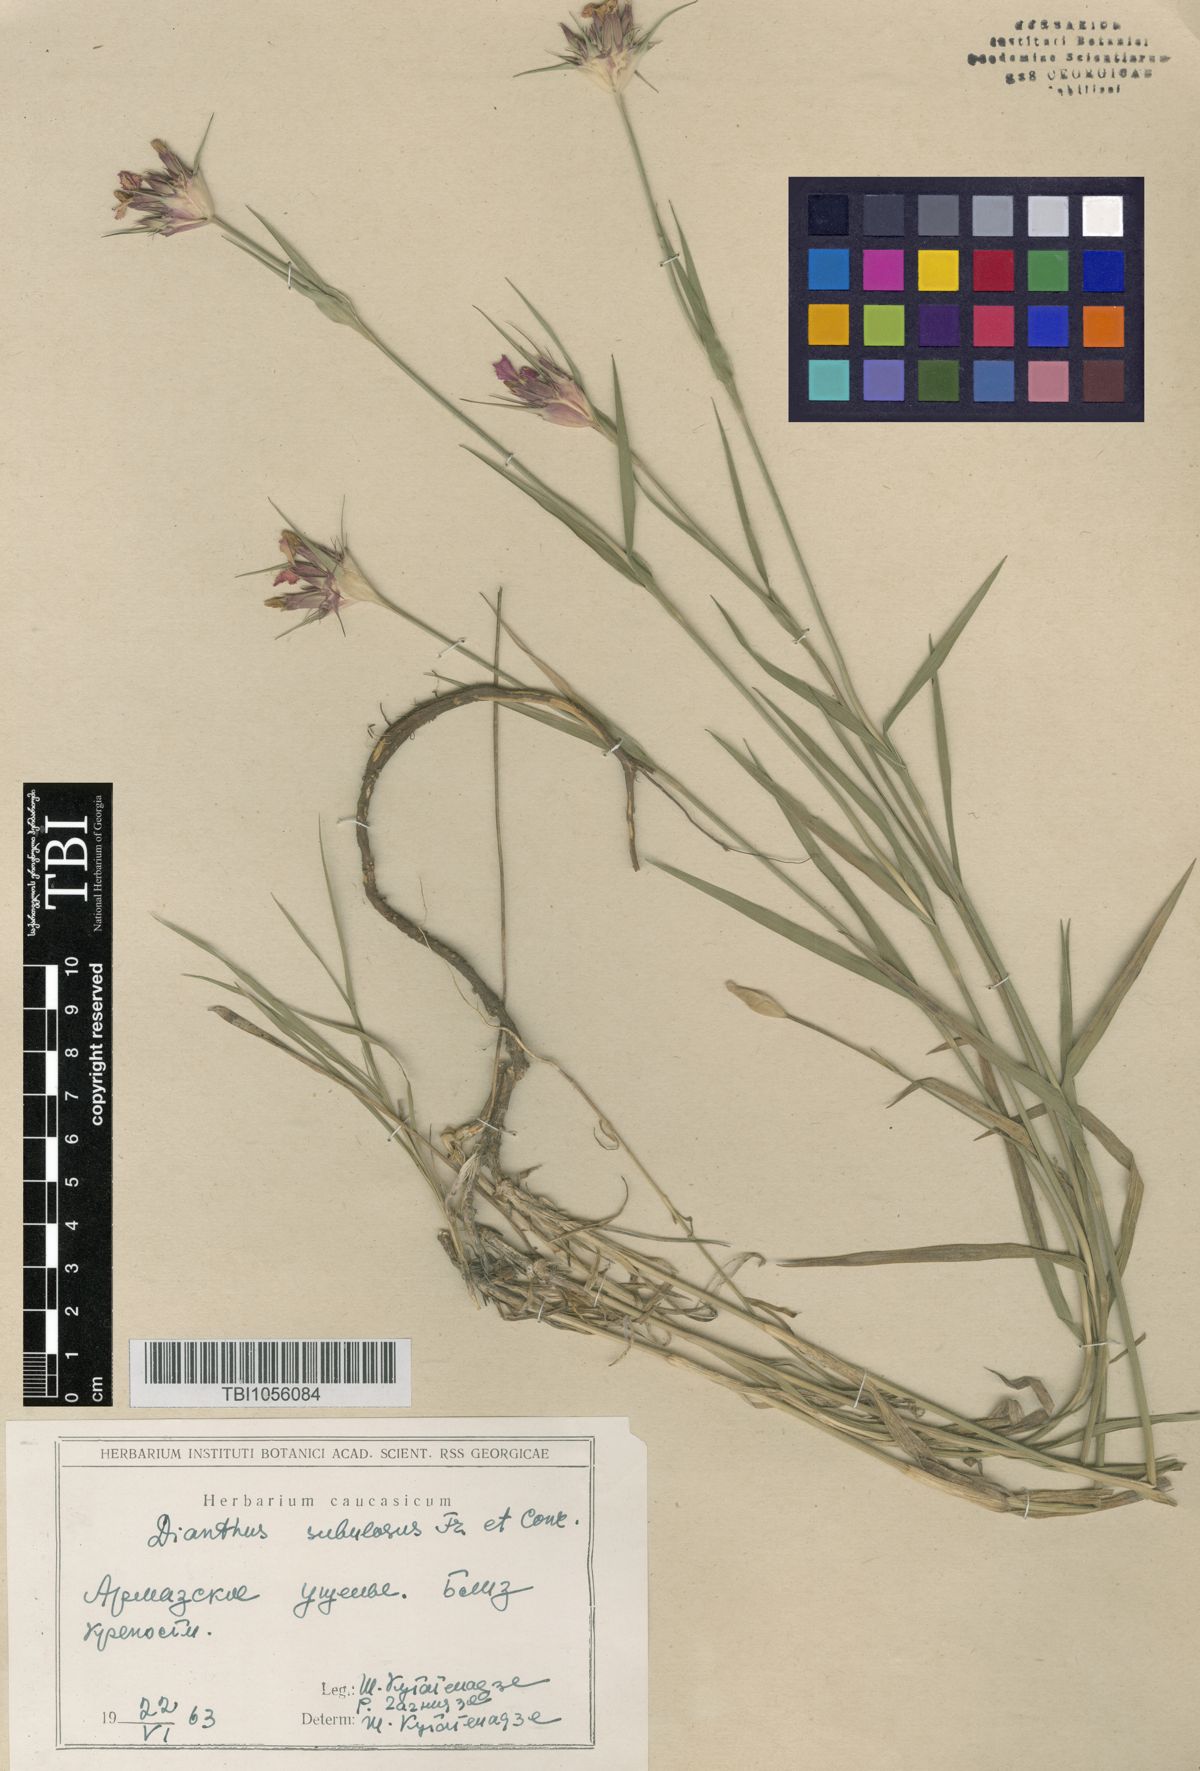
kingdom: Plantae
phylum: Tracheophyta
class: Magnoliopsida
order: Caryophyllales
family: Caryophyllaceae
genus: Dianthus
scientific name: Dianthus subulosus
